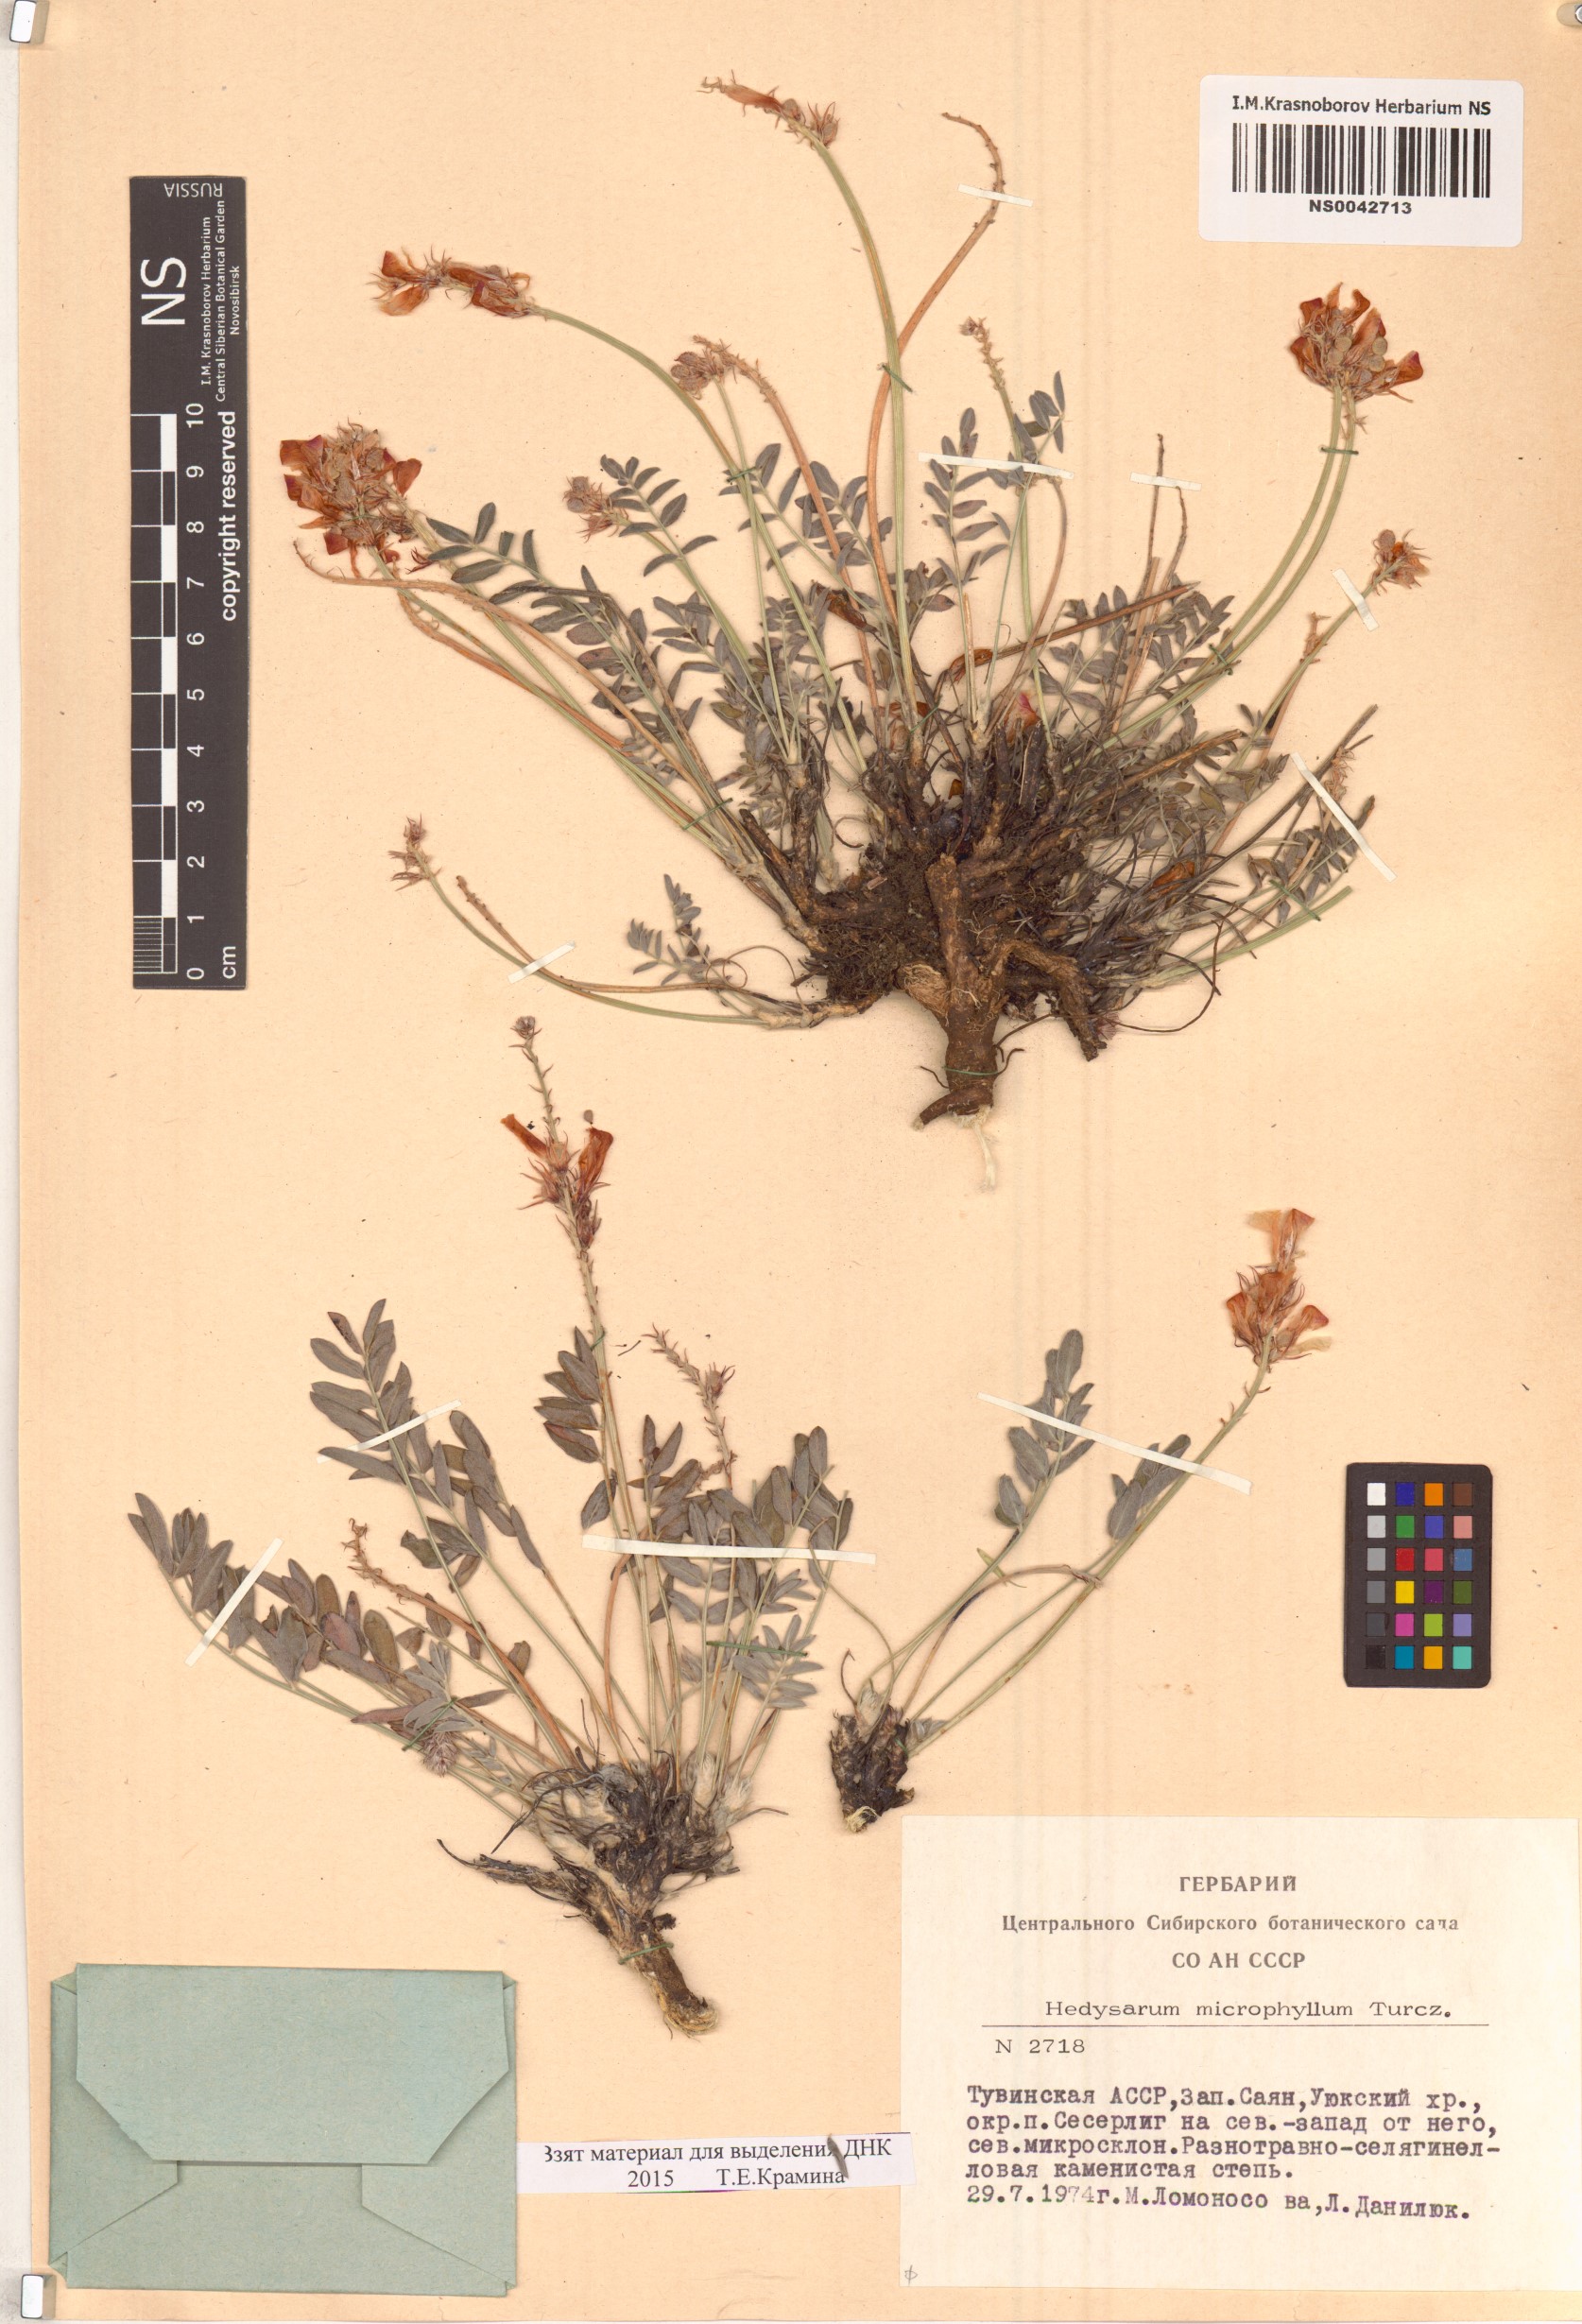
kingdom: Plantae
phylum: Tracheophyta
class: Magnoliopsida
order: Fabales
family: Fabaceae
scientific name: Fabaceae
